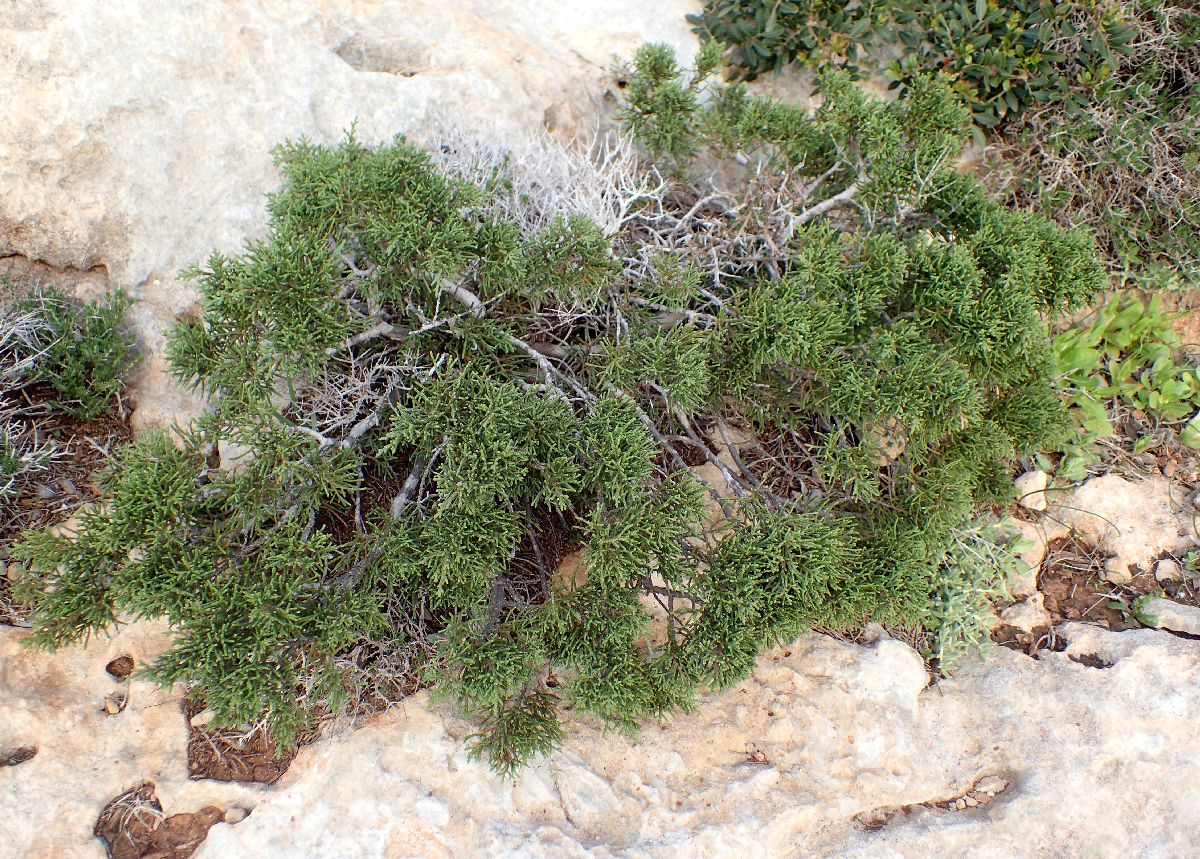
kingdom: Plantae
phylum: Tracheophyta
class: Pinopsida
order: Pinales
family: Cupressaceae
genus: Juniperus
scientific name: Juniperus phoenicea
